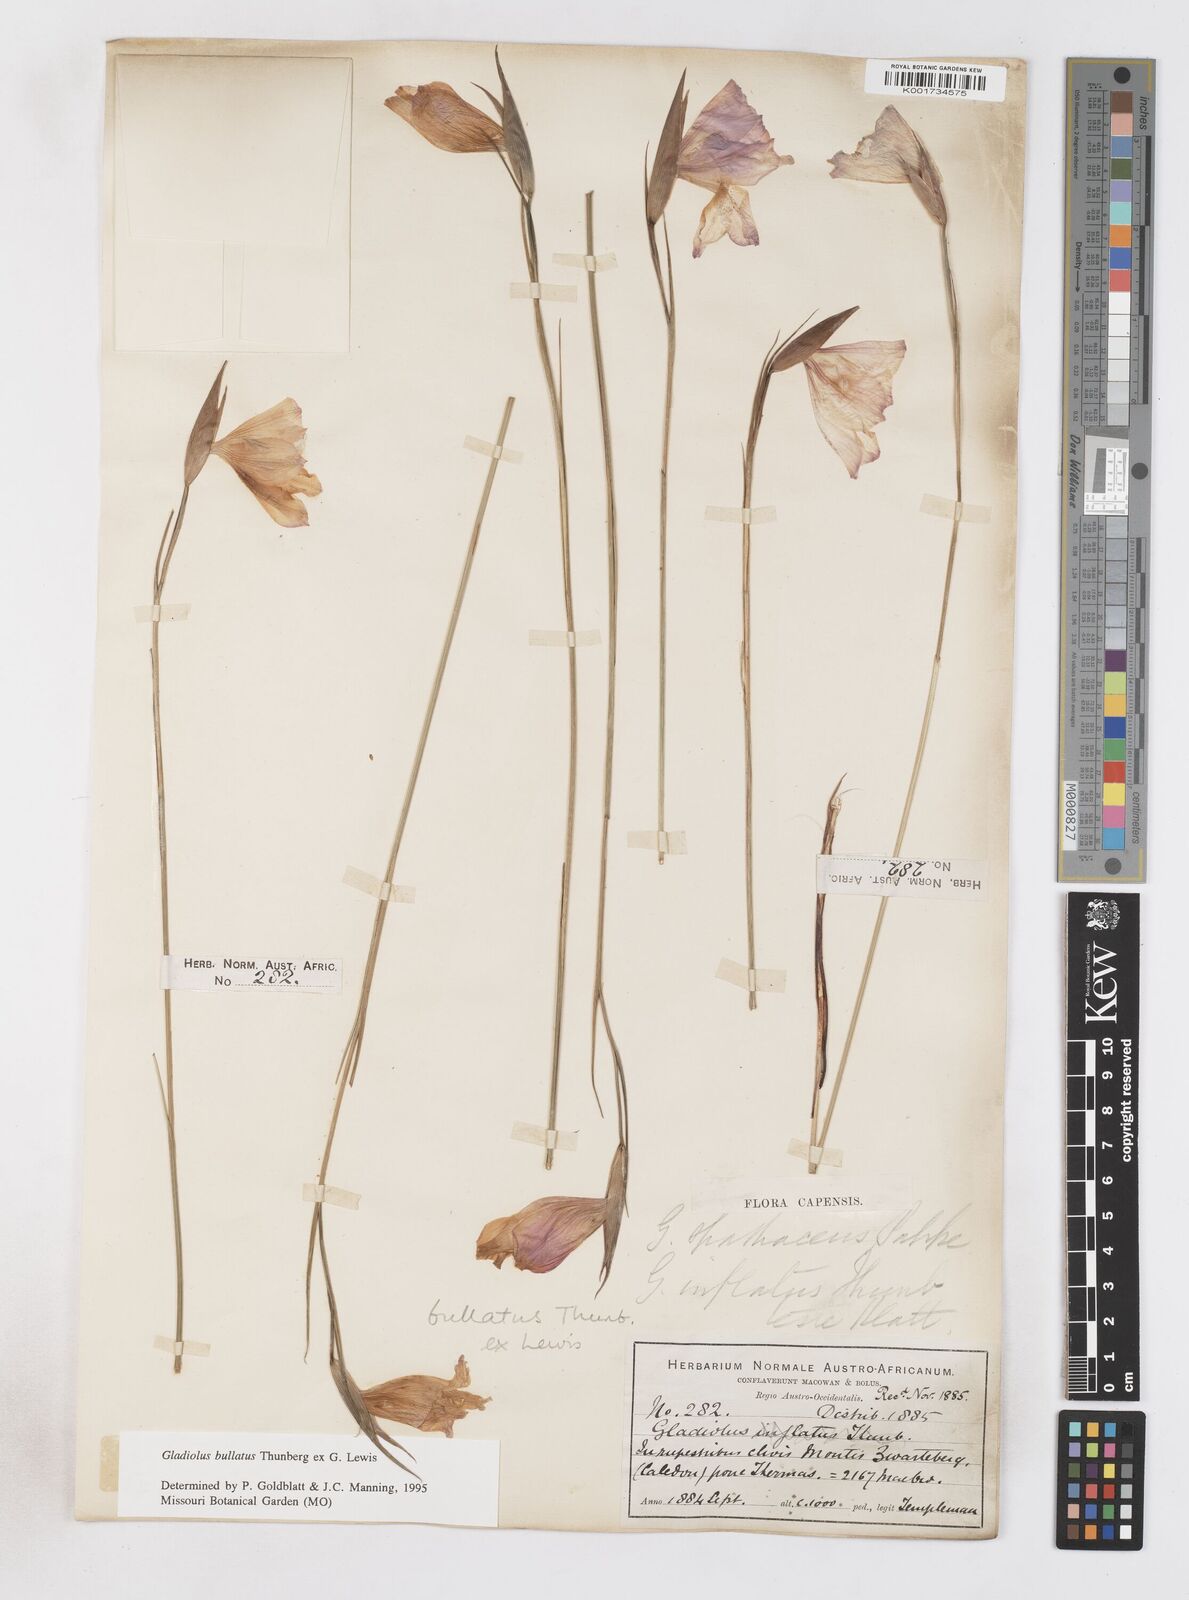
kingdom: Plantae
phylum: Tracheophyta
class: Liliopsida
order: Asparagales
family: Iridaceae
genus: Gladiolus
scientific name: Gladiolus bullatus
